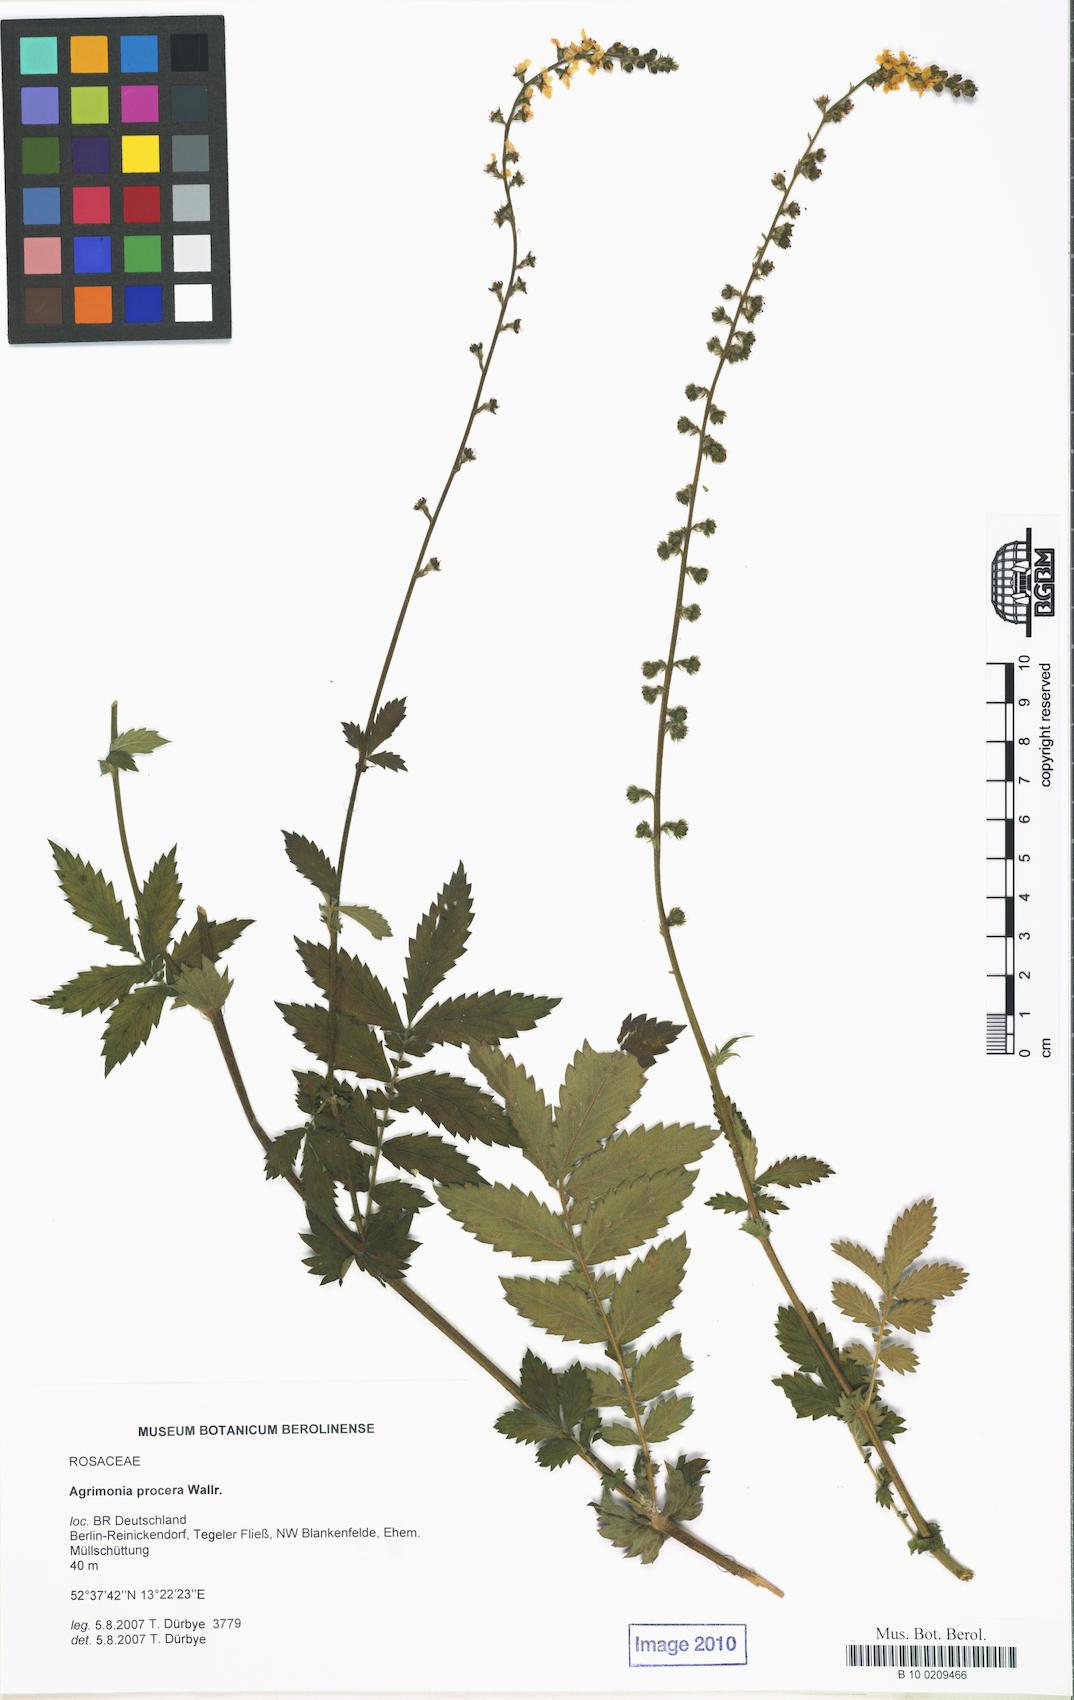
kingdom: Plantae
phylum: Tracheophyta
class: Magnoliopsida
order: Rosales
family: Rosaceae
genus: Agrimonia
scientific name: Agrimonia procera
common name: Fragrant agrimony
